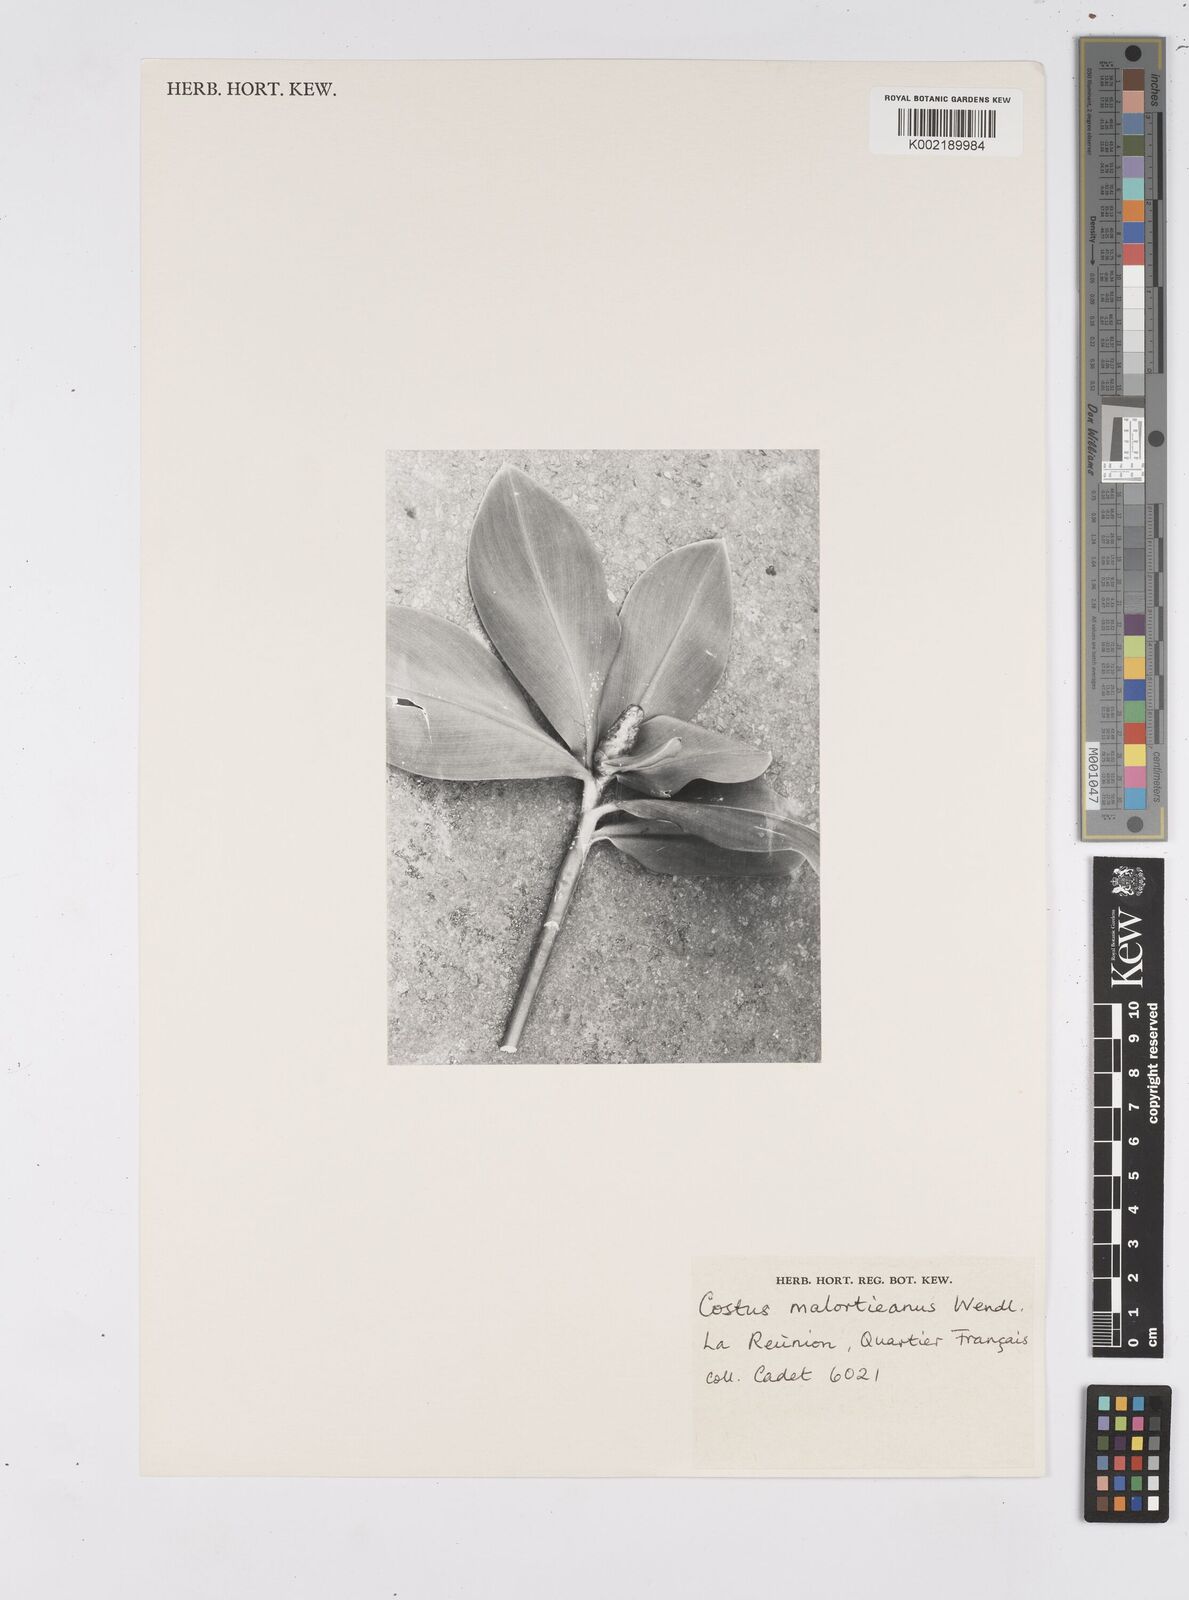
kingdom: Plantae
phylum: Tracheophyta
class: Liliopsida
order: Zingiberales
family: Costaceae
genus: Costus
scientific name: Costus elegans
